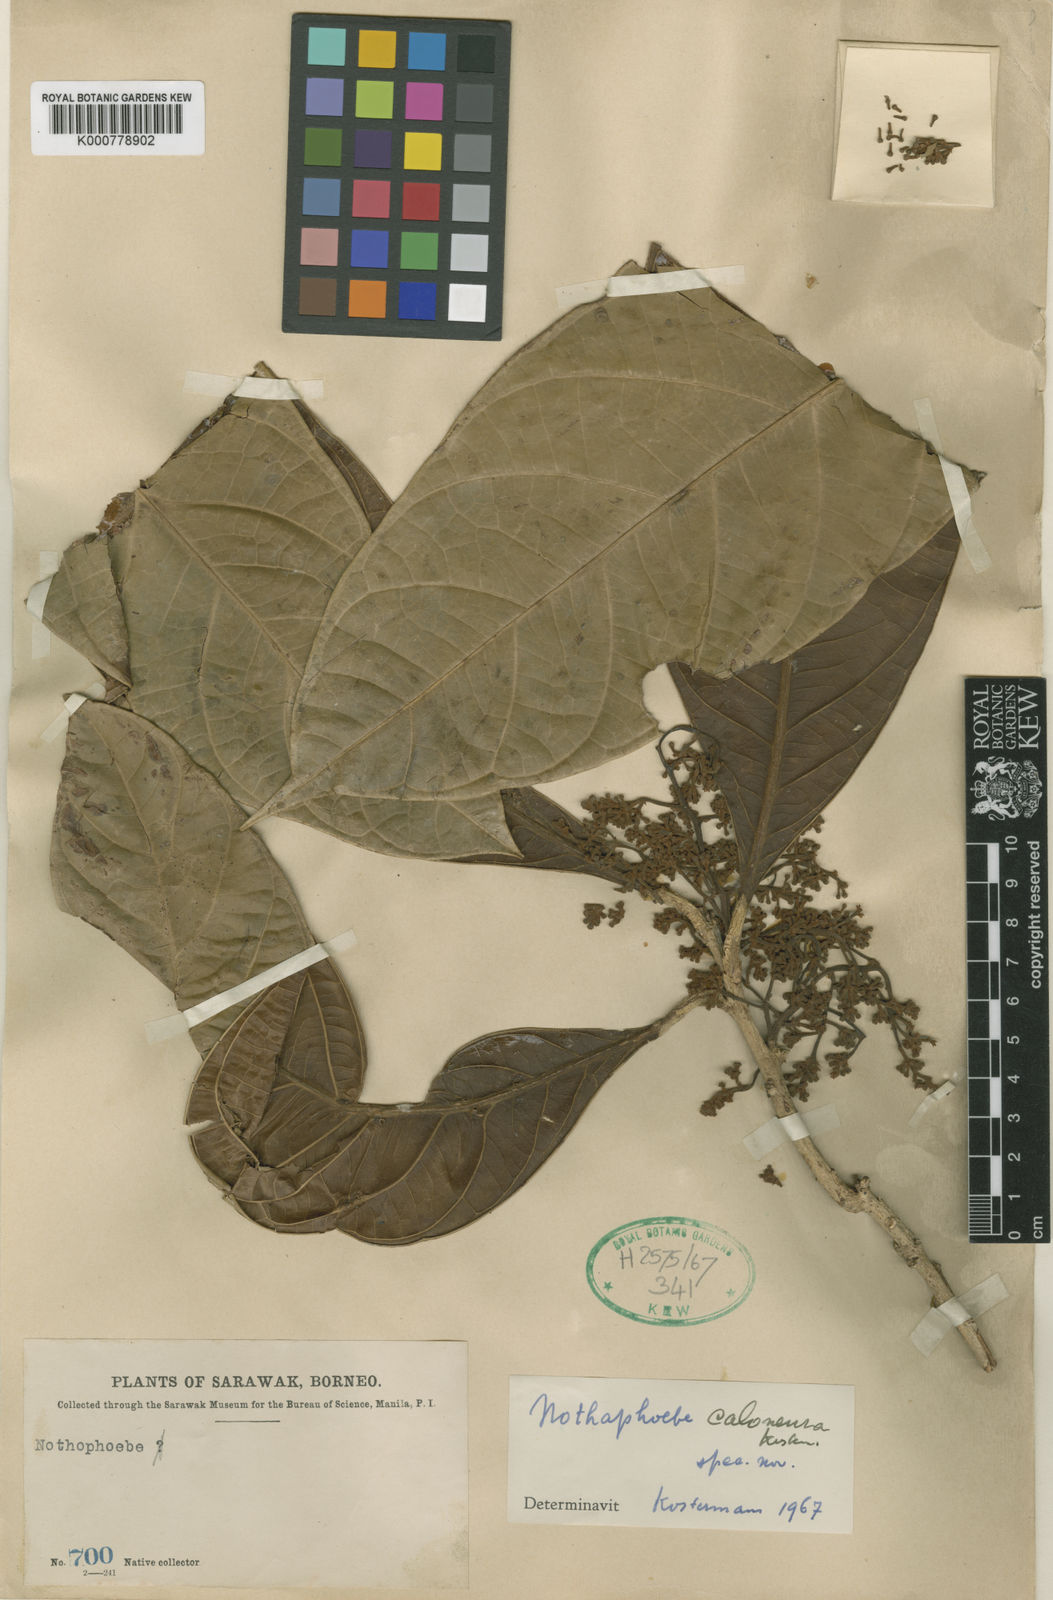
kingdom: Plantae
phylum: Tracheophyta
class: Magnoliopsida
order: Laurales
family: Lauraceae
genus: Nothaphoebe
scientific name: Nothaphoebe
